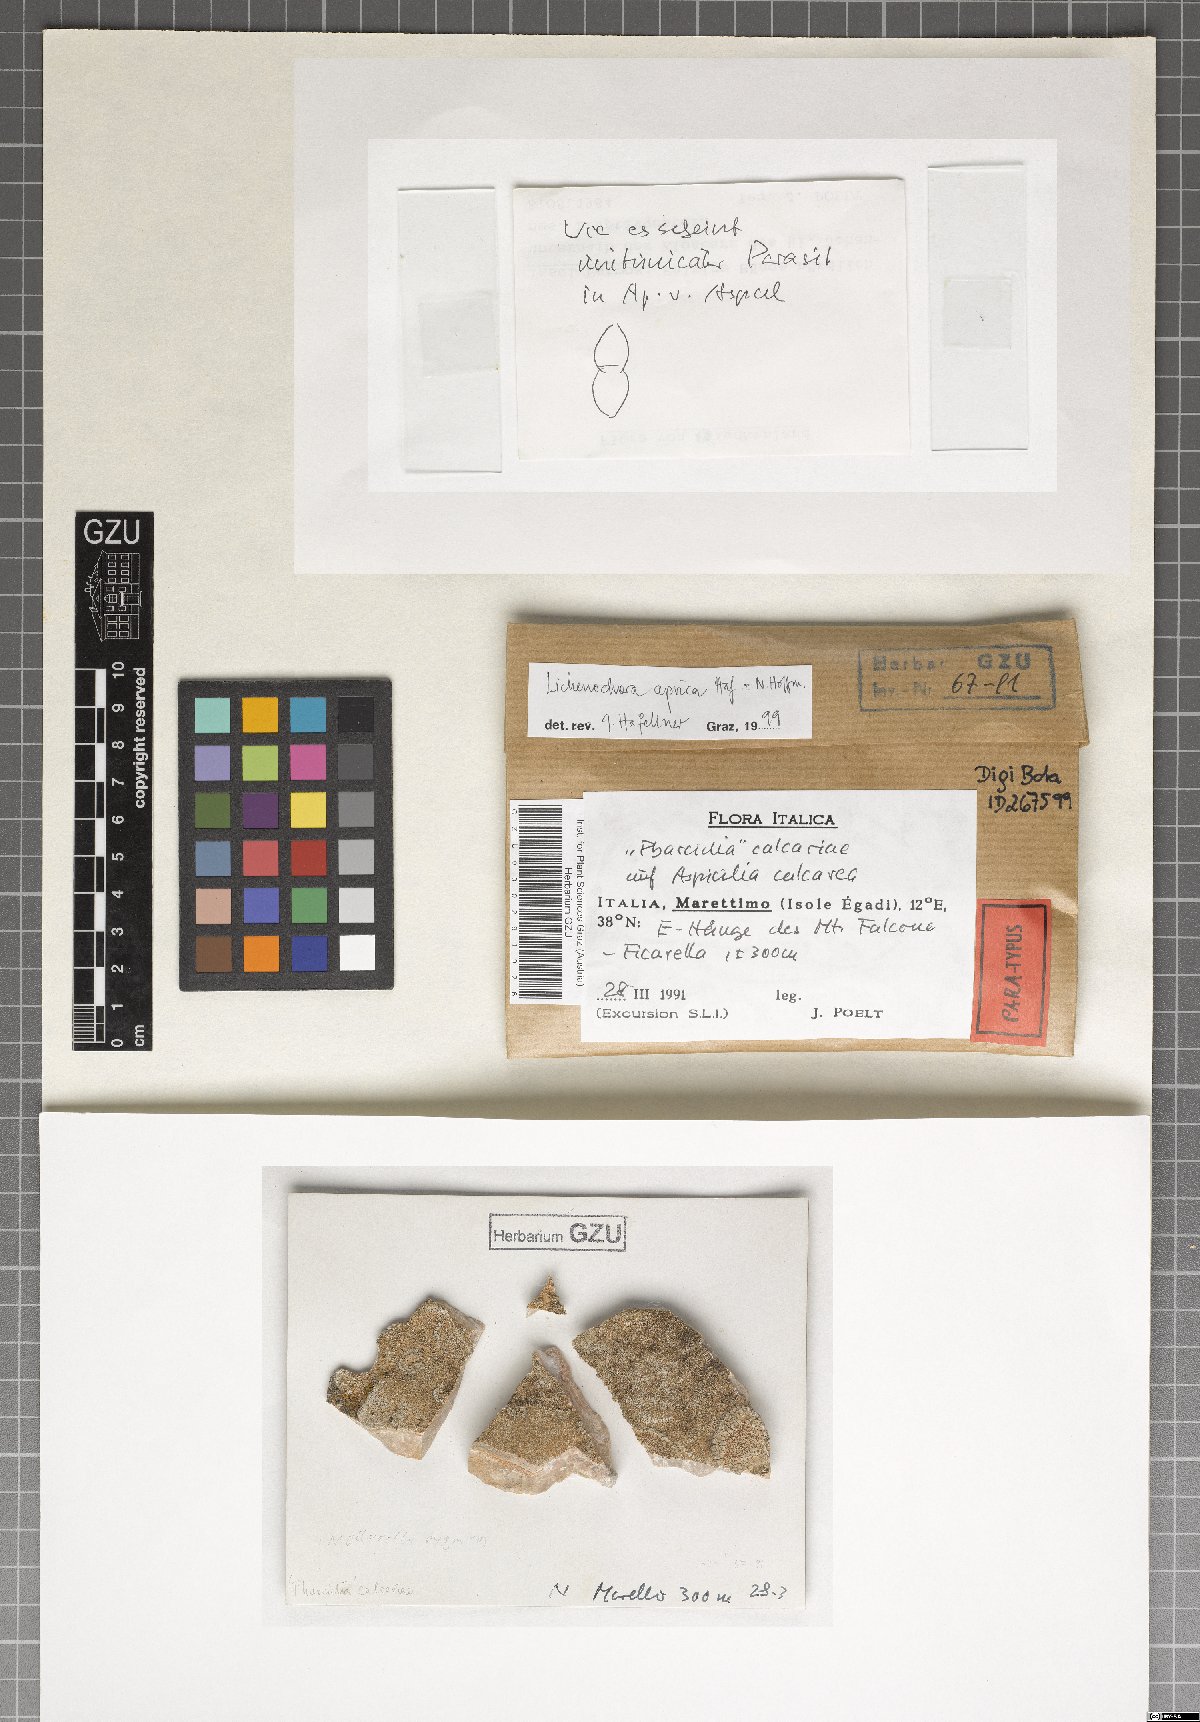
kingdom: Fungi
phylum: Ascomycota
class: Sordariomycetes
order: Phyllachorales
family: Phyllachoraceae
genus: Lichenochora
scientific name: Lichenochora aprica
